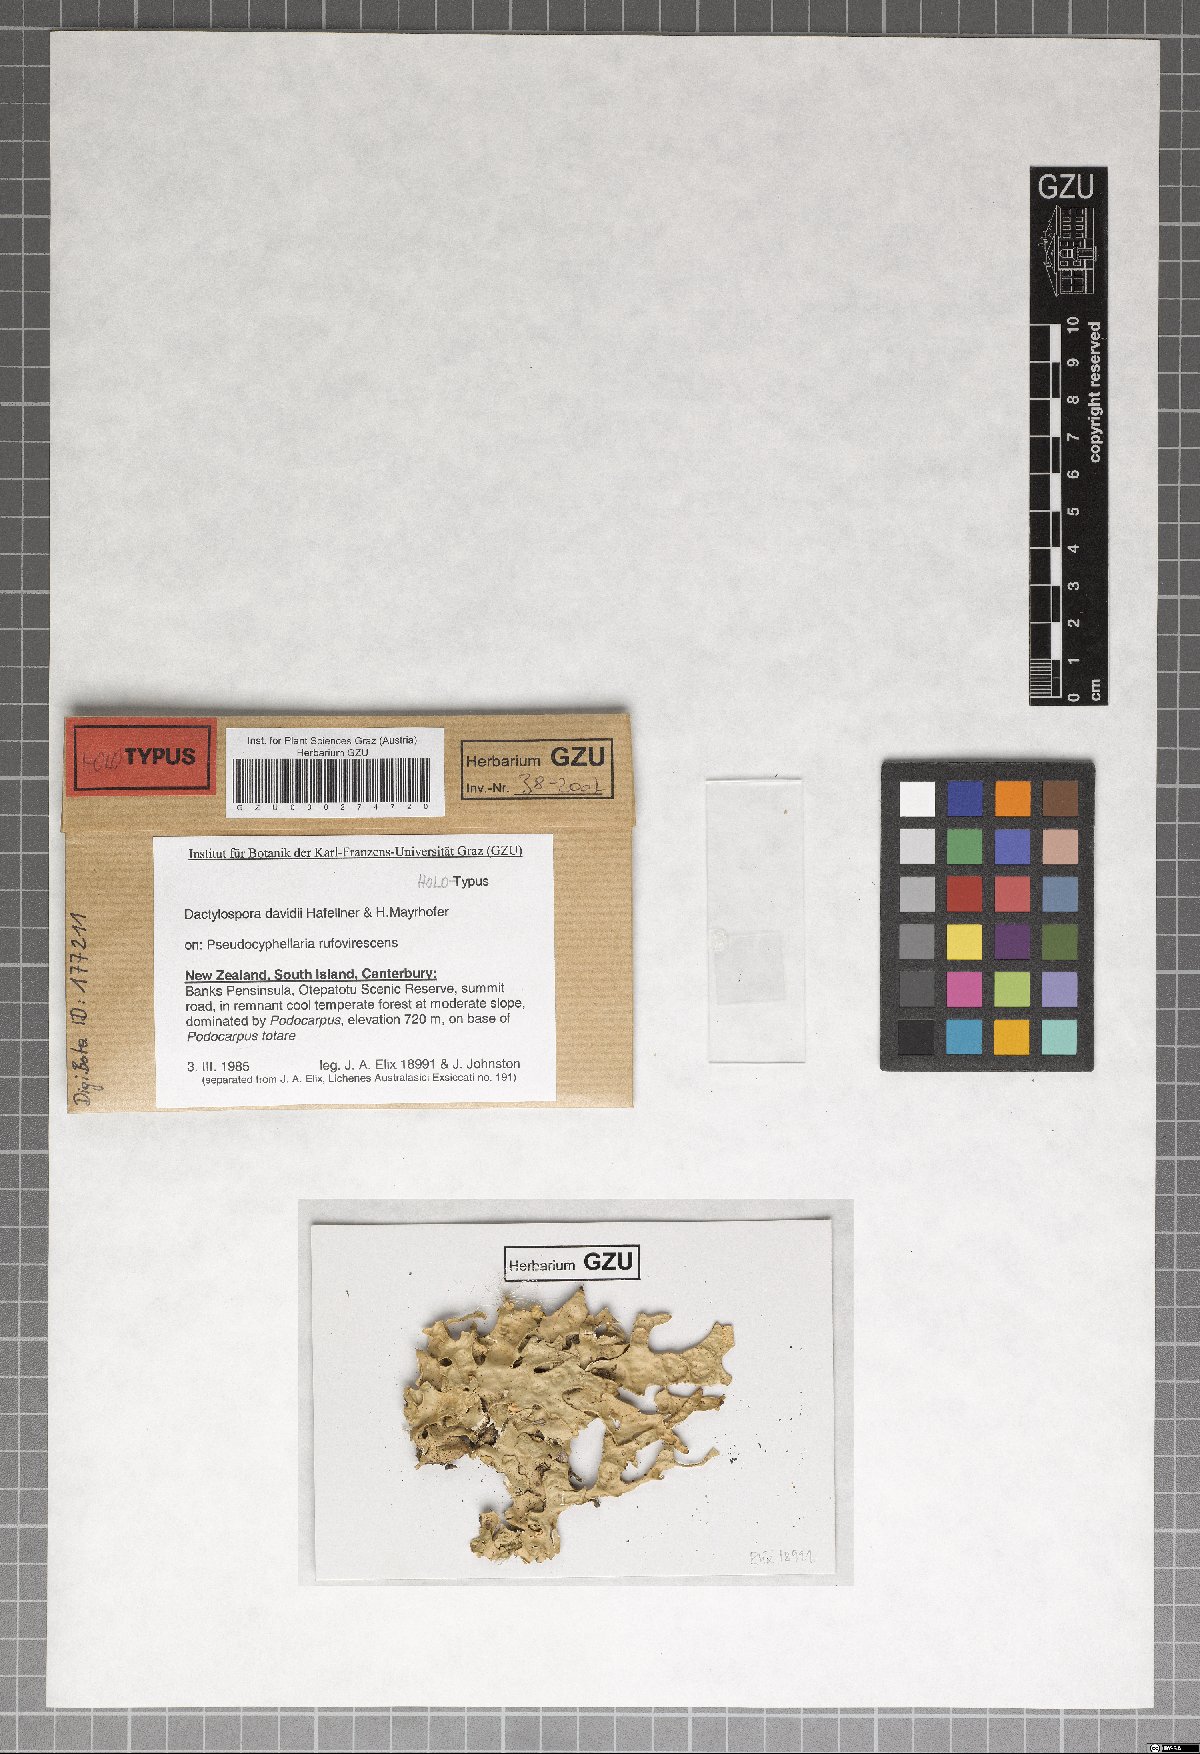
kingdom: Fungi
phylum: Ascomycota
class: Eurotiomycetes
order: Sclerococcales
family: Sclerococcaceae
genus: Sclerococcum
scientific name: Sclerococcum davidii
